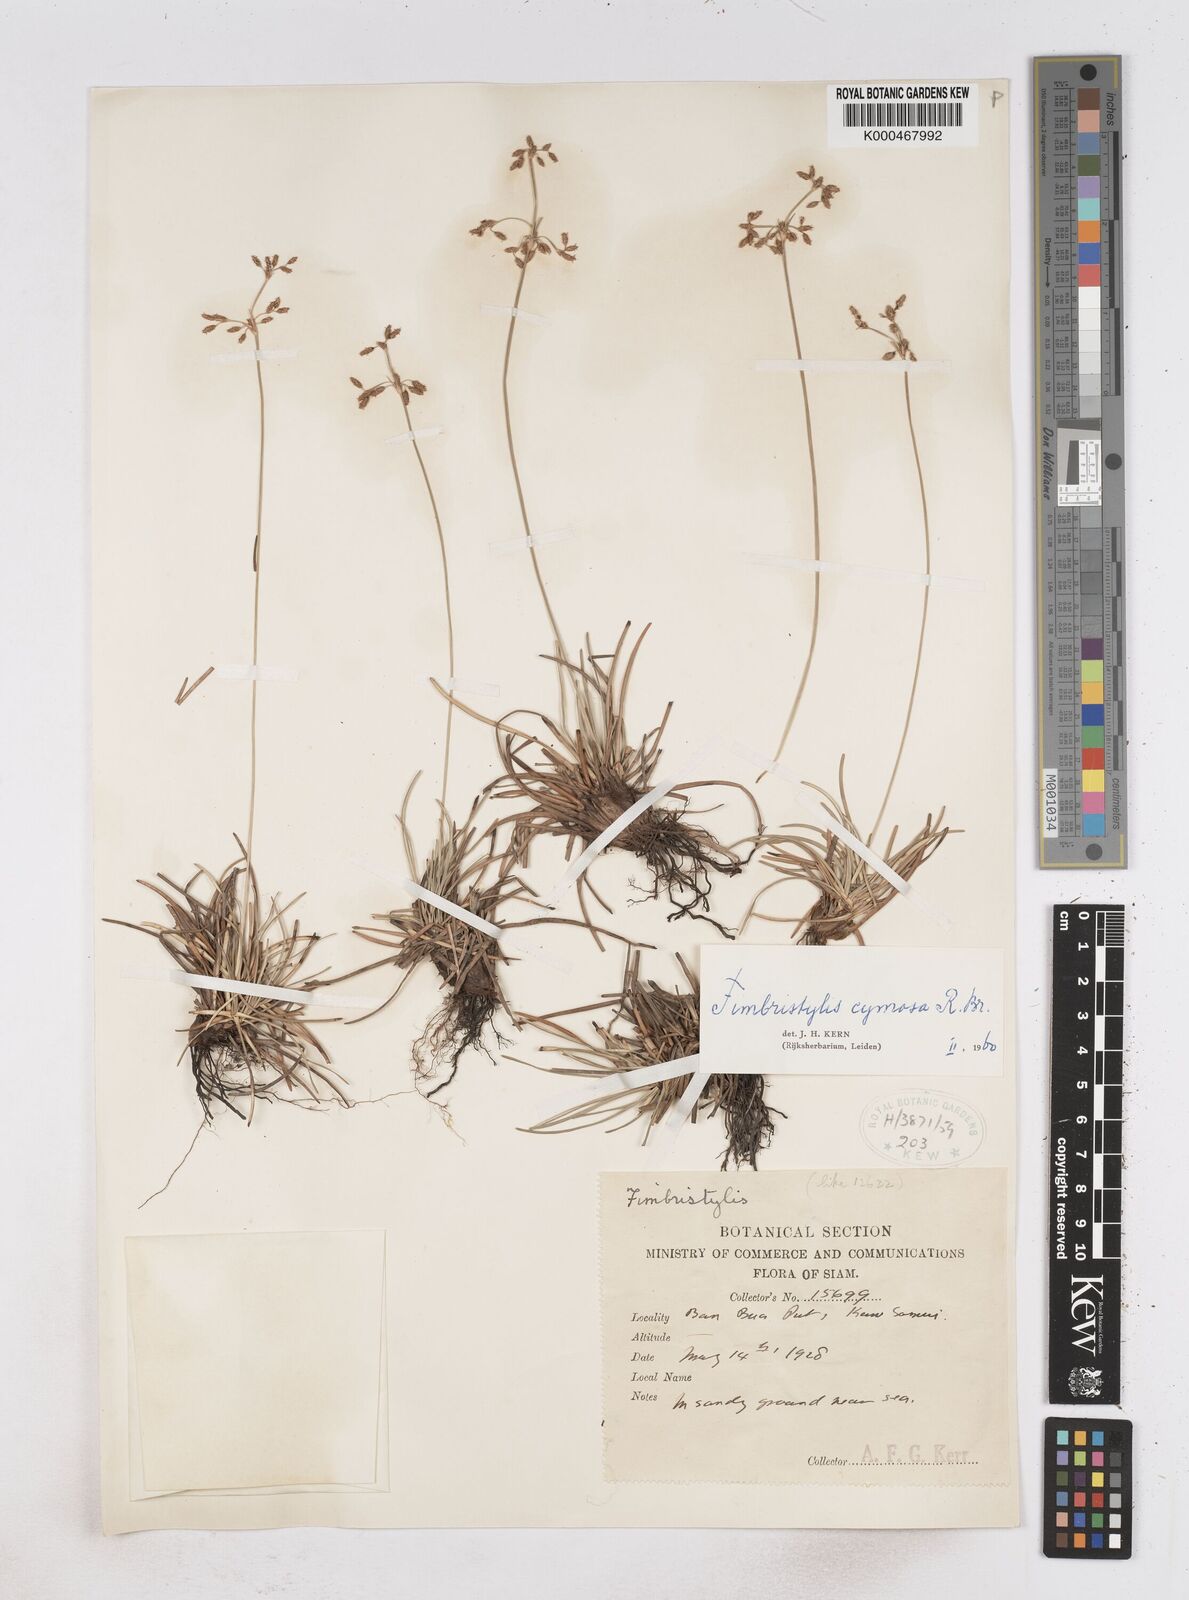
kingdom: Plantae
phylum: Tracheophyta
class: Liliopsida
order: Poales
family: Cyperaceae
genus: Fimbristylis
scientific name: Fimbristylis cymosa
